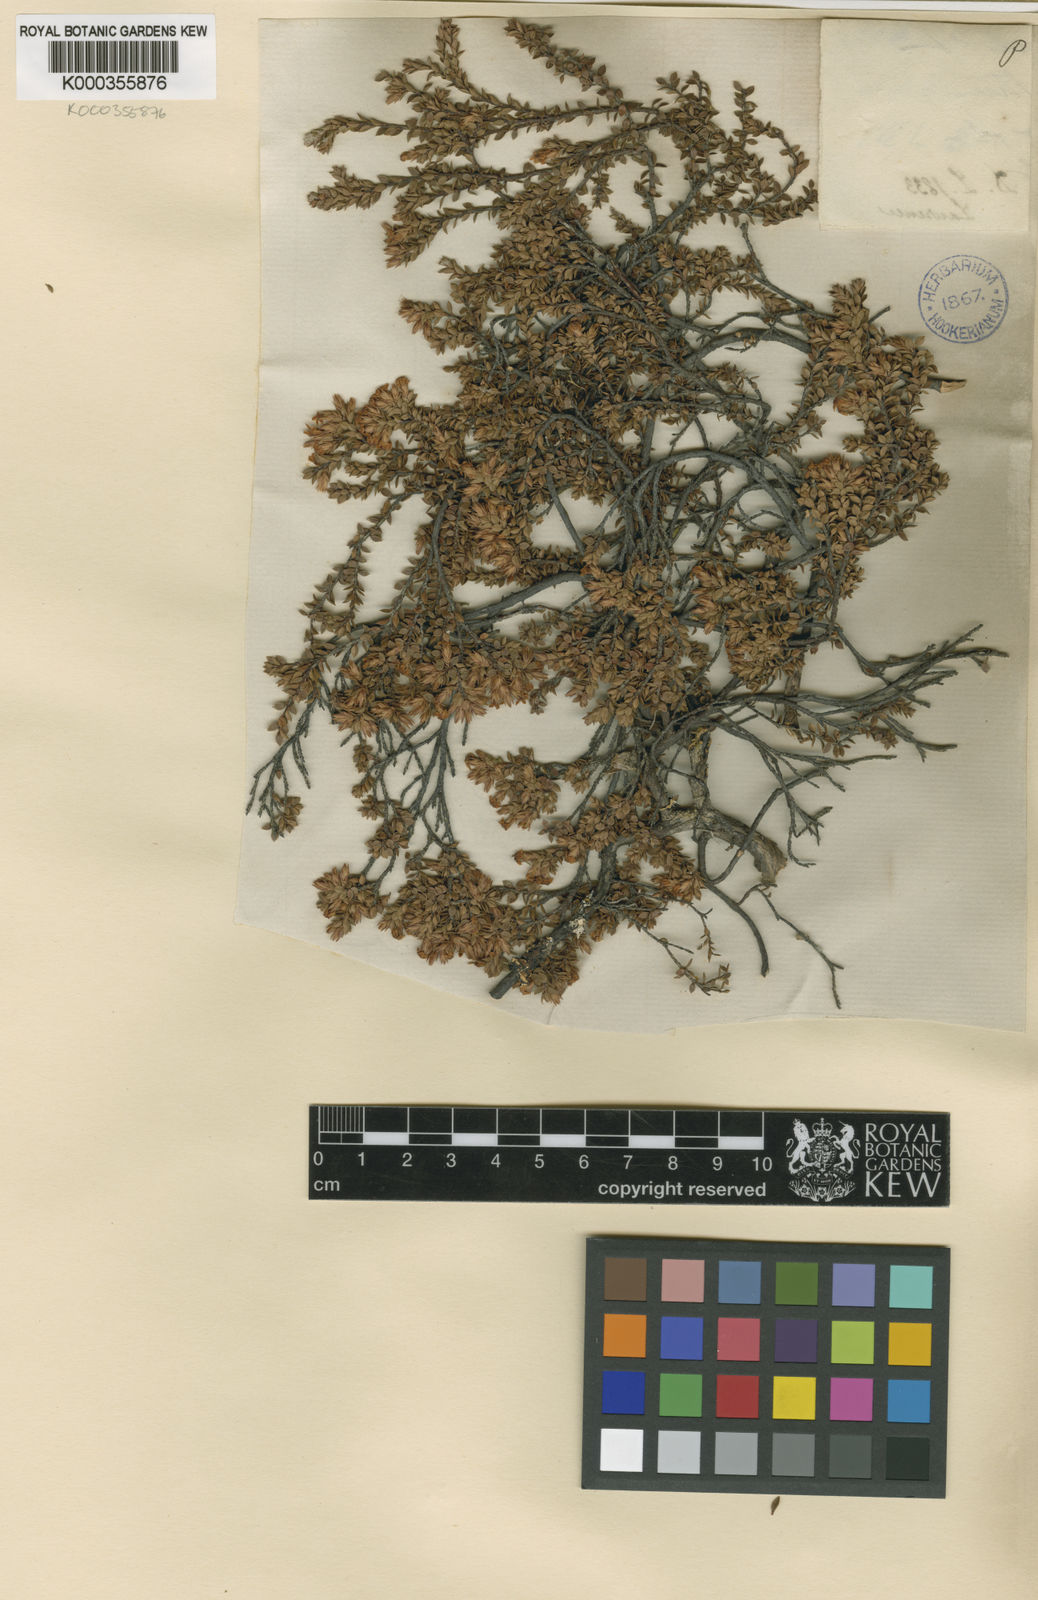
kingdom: Plantae
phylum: Tracheophyta
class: Magnoliopsida
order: Ericales
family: Ericaceae
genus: Epacris
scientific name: Epacris serpyllifolia
